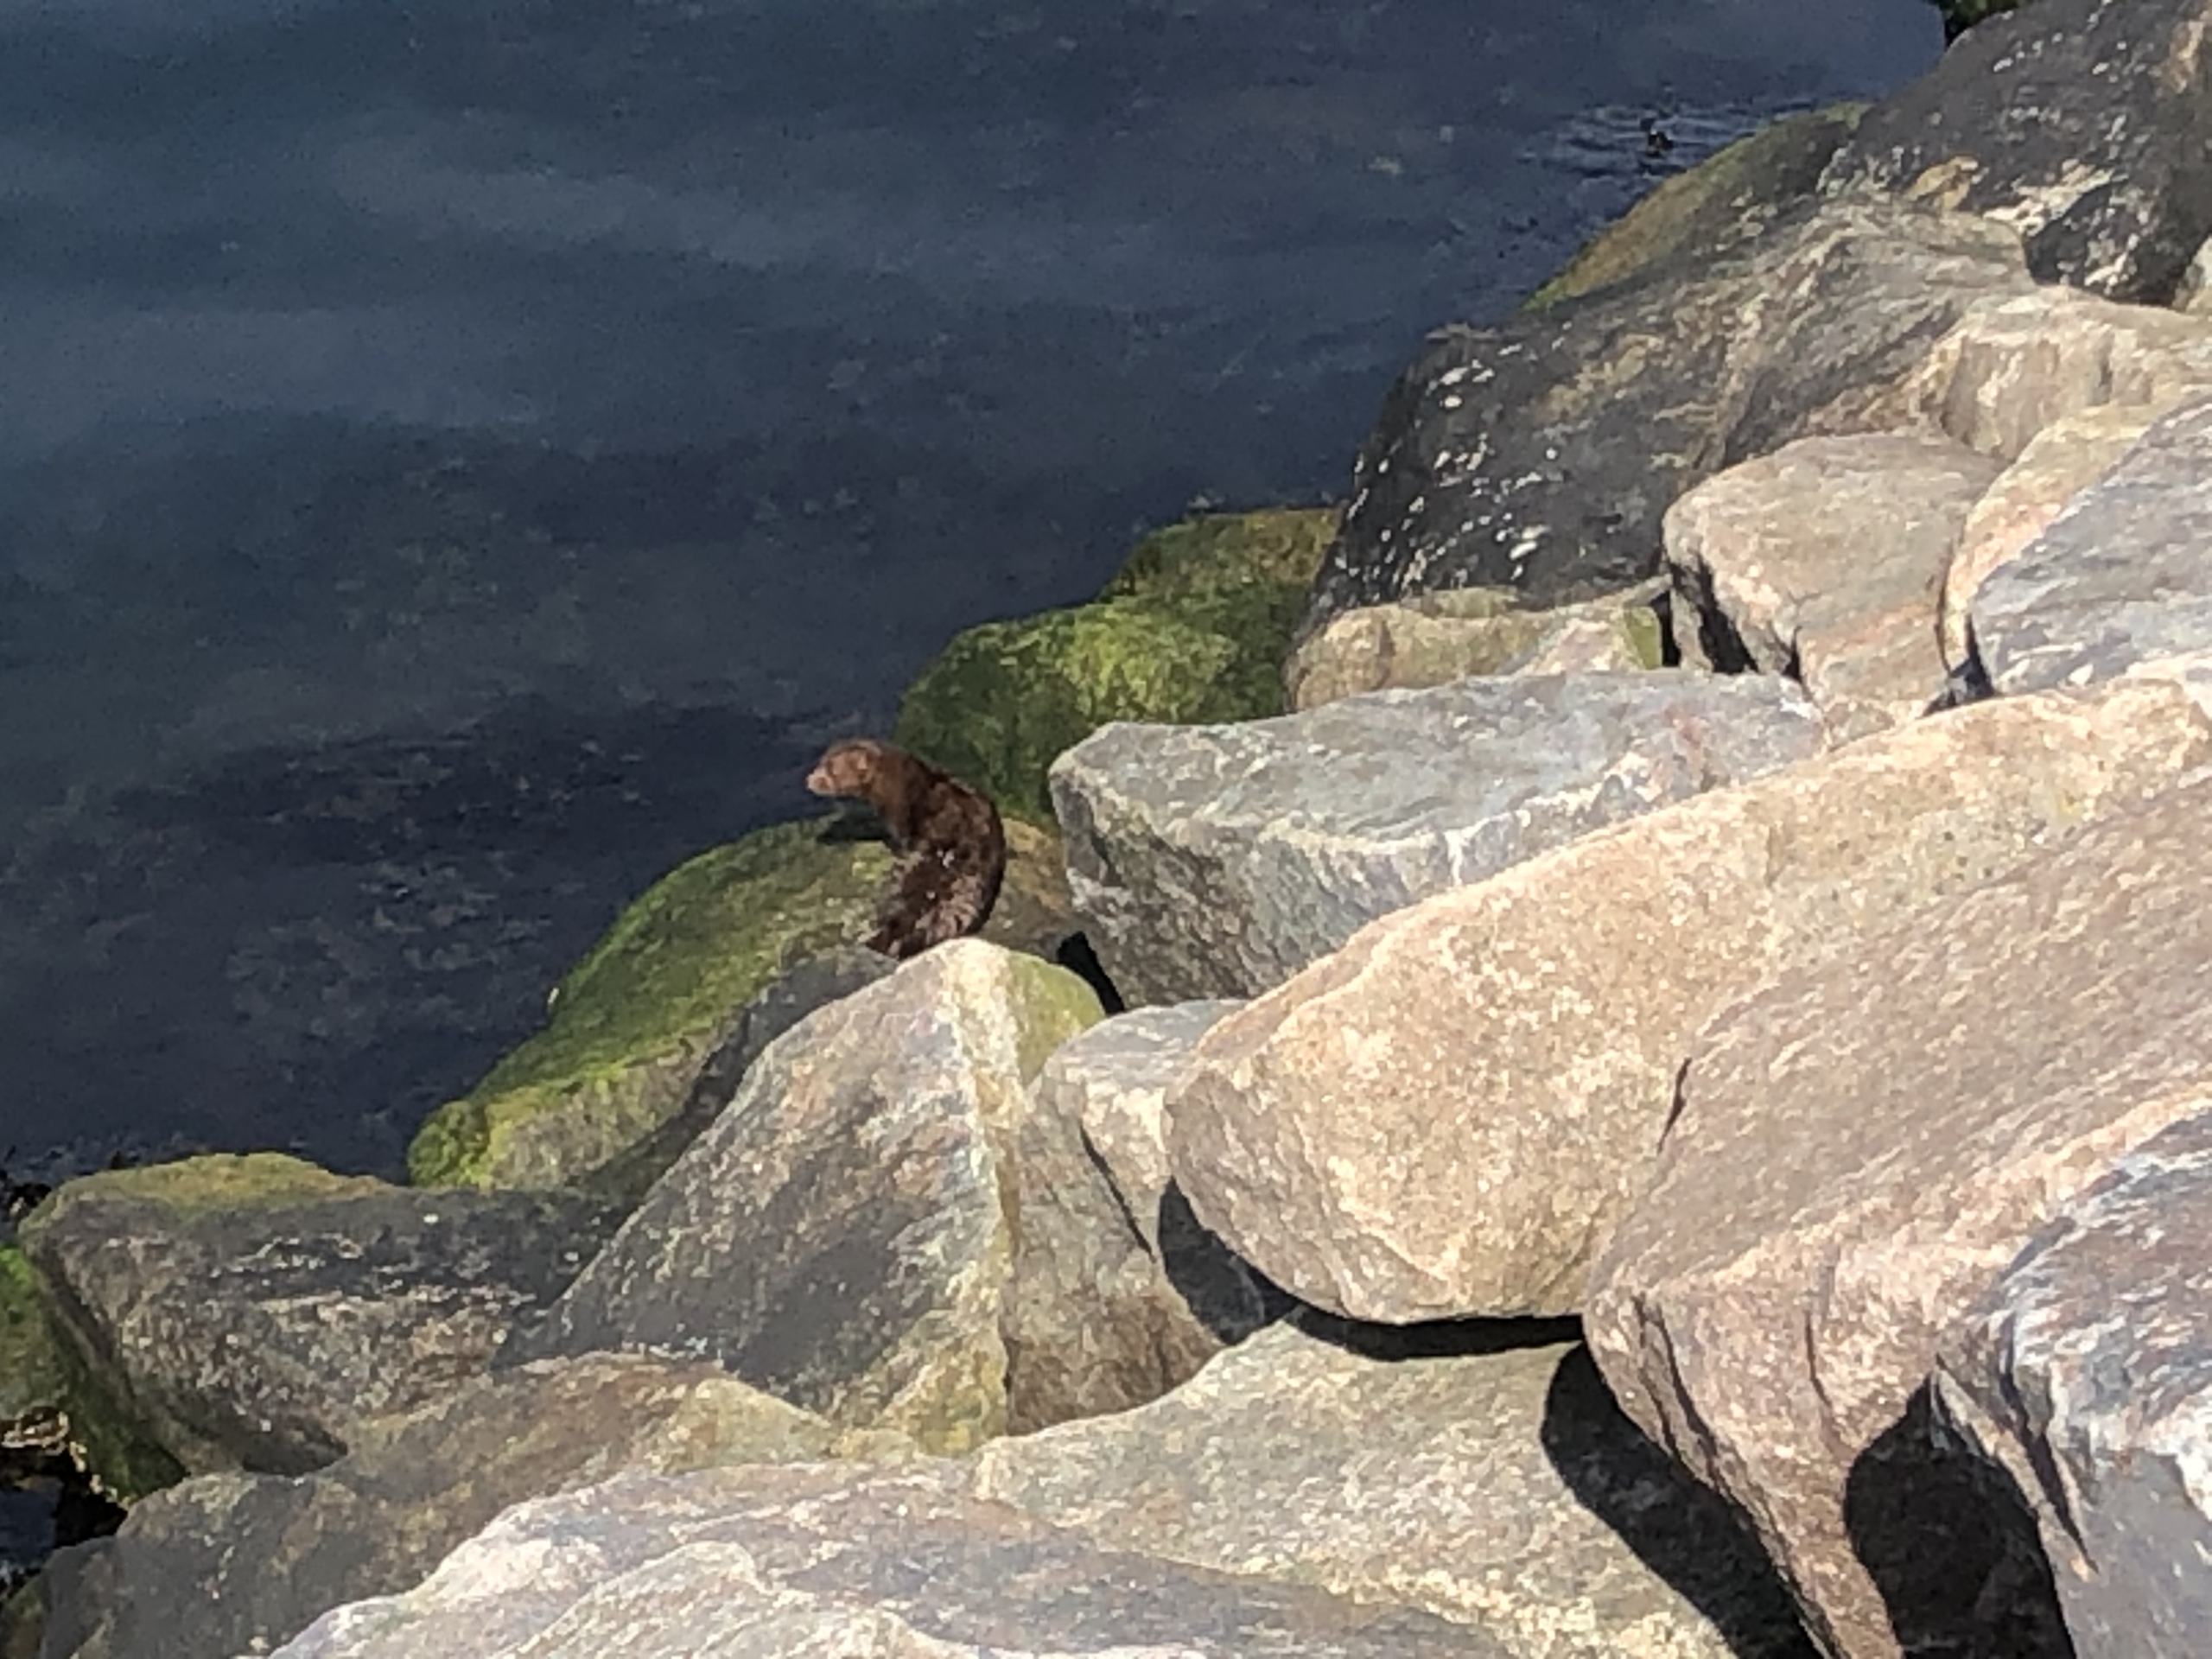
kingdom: Animalia
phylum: Chordata
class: Mammalia
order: Carnivora
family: Mustelidae
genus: Mustela
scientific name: Mustela vison
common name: Mink
